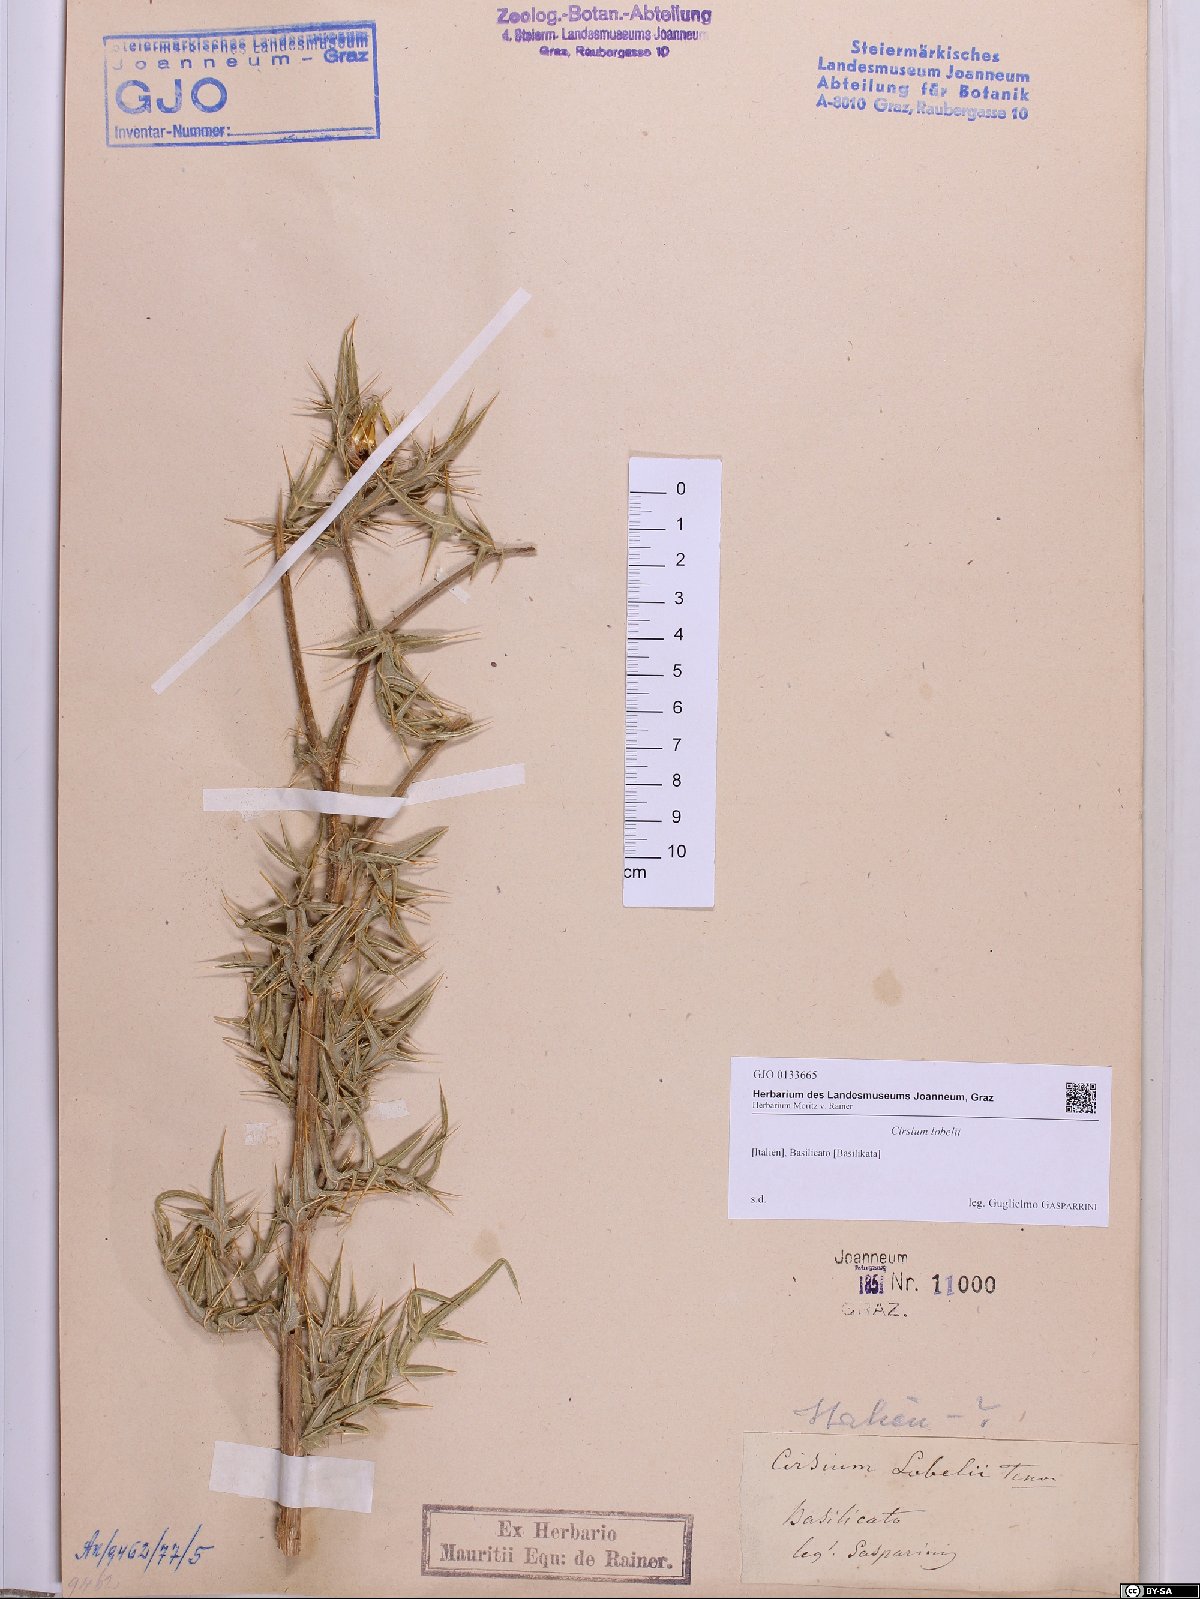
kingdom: Plantae
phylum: Tracheophyta
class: Magnoliopsida
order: Asterales
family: Asteraceae
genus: Lophiolepis
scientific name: Lophiolepis lobelii
